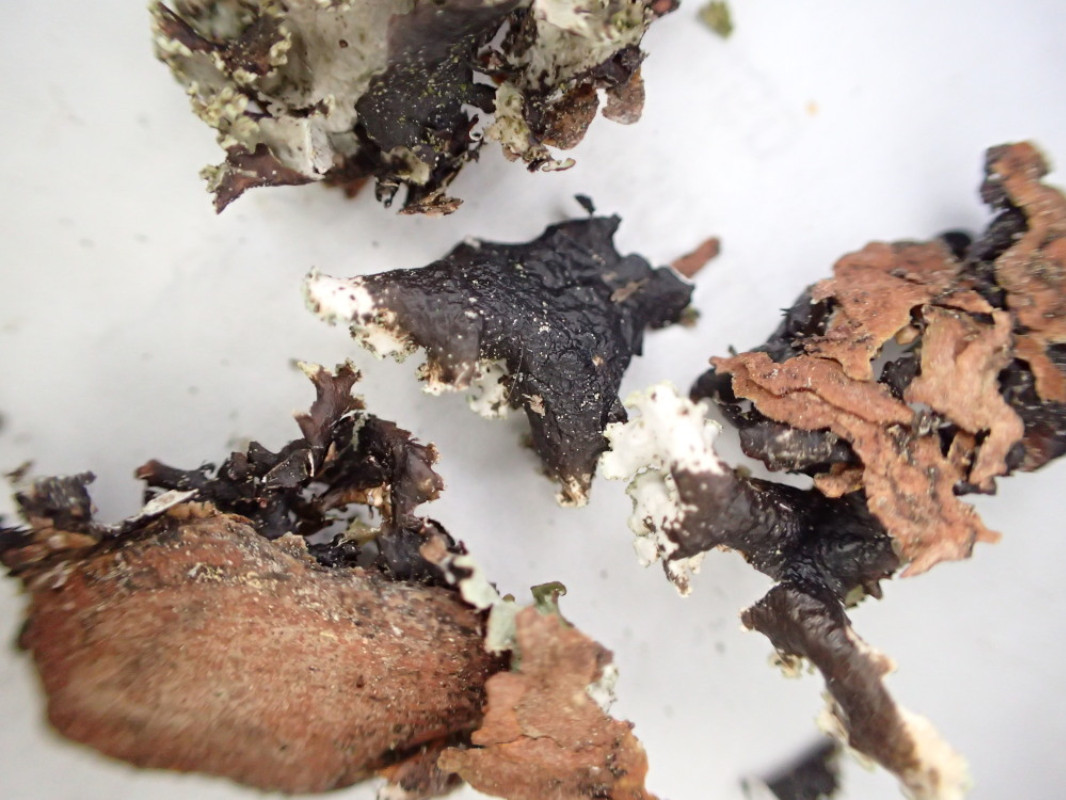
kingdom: Fungi
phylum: Ascomycota
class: Lecanoromycetes
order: Lecanorales
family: Parmeliaceae
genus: Platismatia
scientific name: Platismatia glauca
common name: blågrå papirlav
